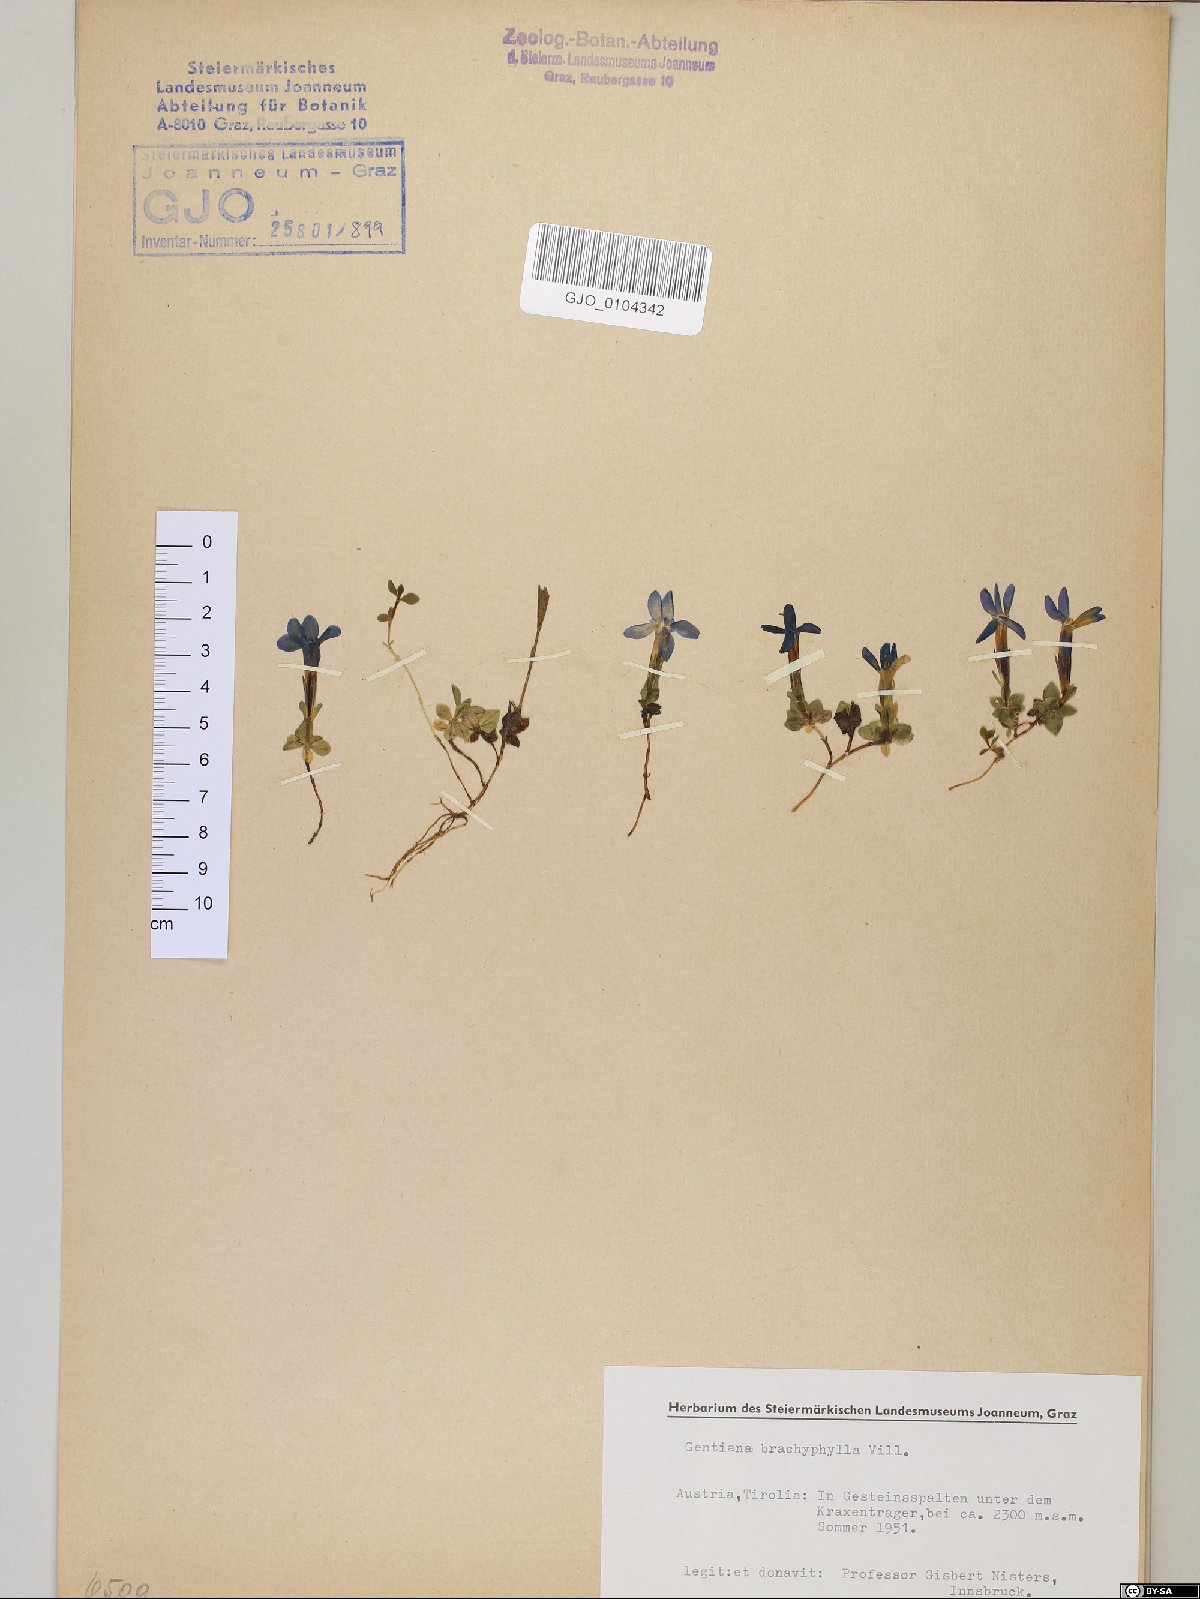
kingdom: Plantae
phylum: Tracheophyta
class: Magnoliopsida
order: Gentianales
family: Gentianaceae
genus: Gentiana
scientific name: Gentiana brachyphylla
